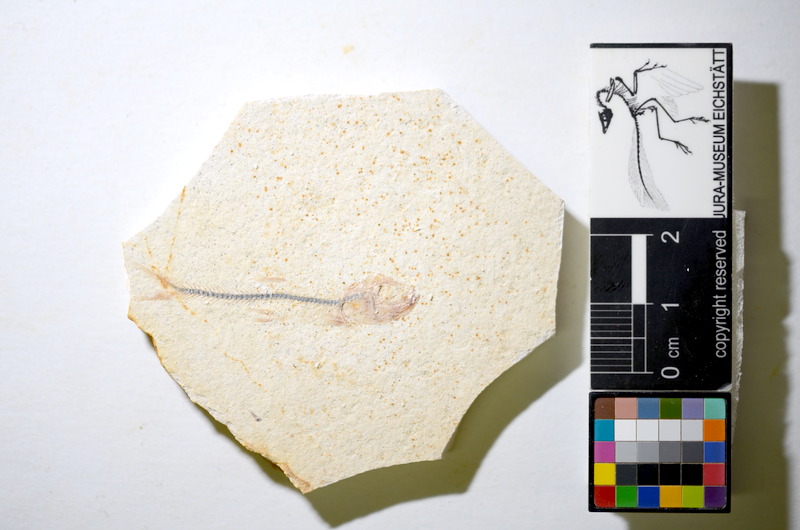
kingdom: Animalia
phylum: Chordata
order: Salmoniformes
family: Orthogonikleithridae
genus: Orthogonikleithrus
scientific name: Orthogonikleithrus hoelli
